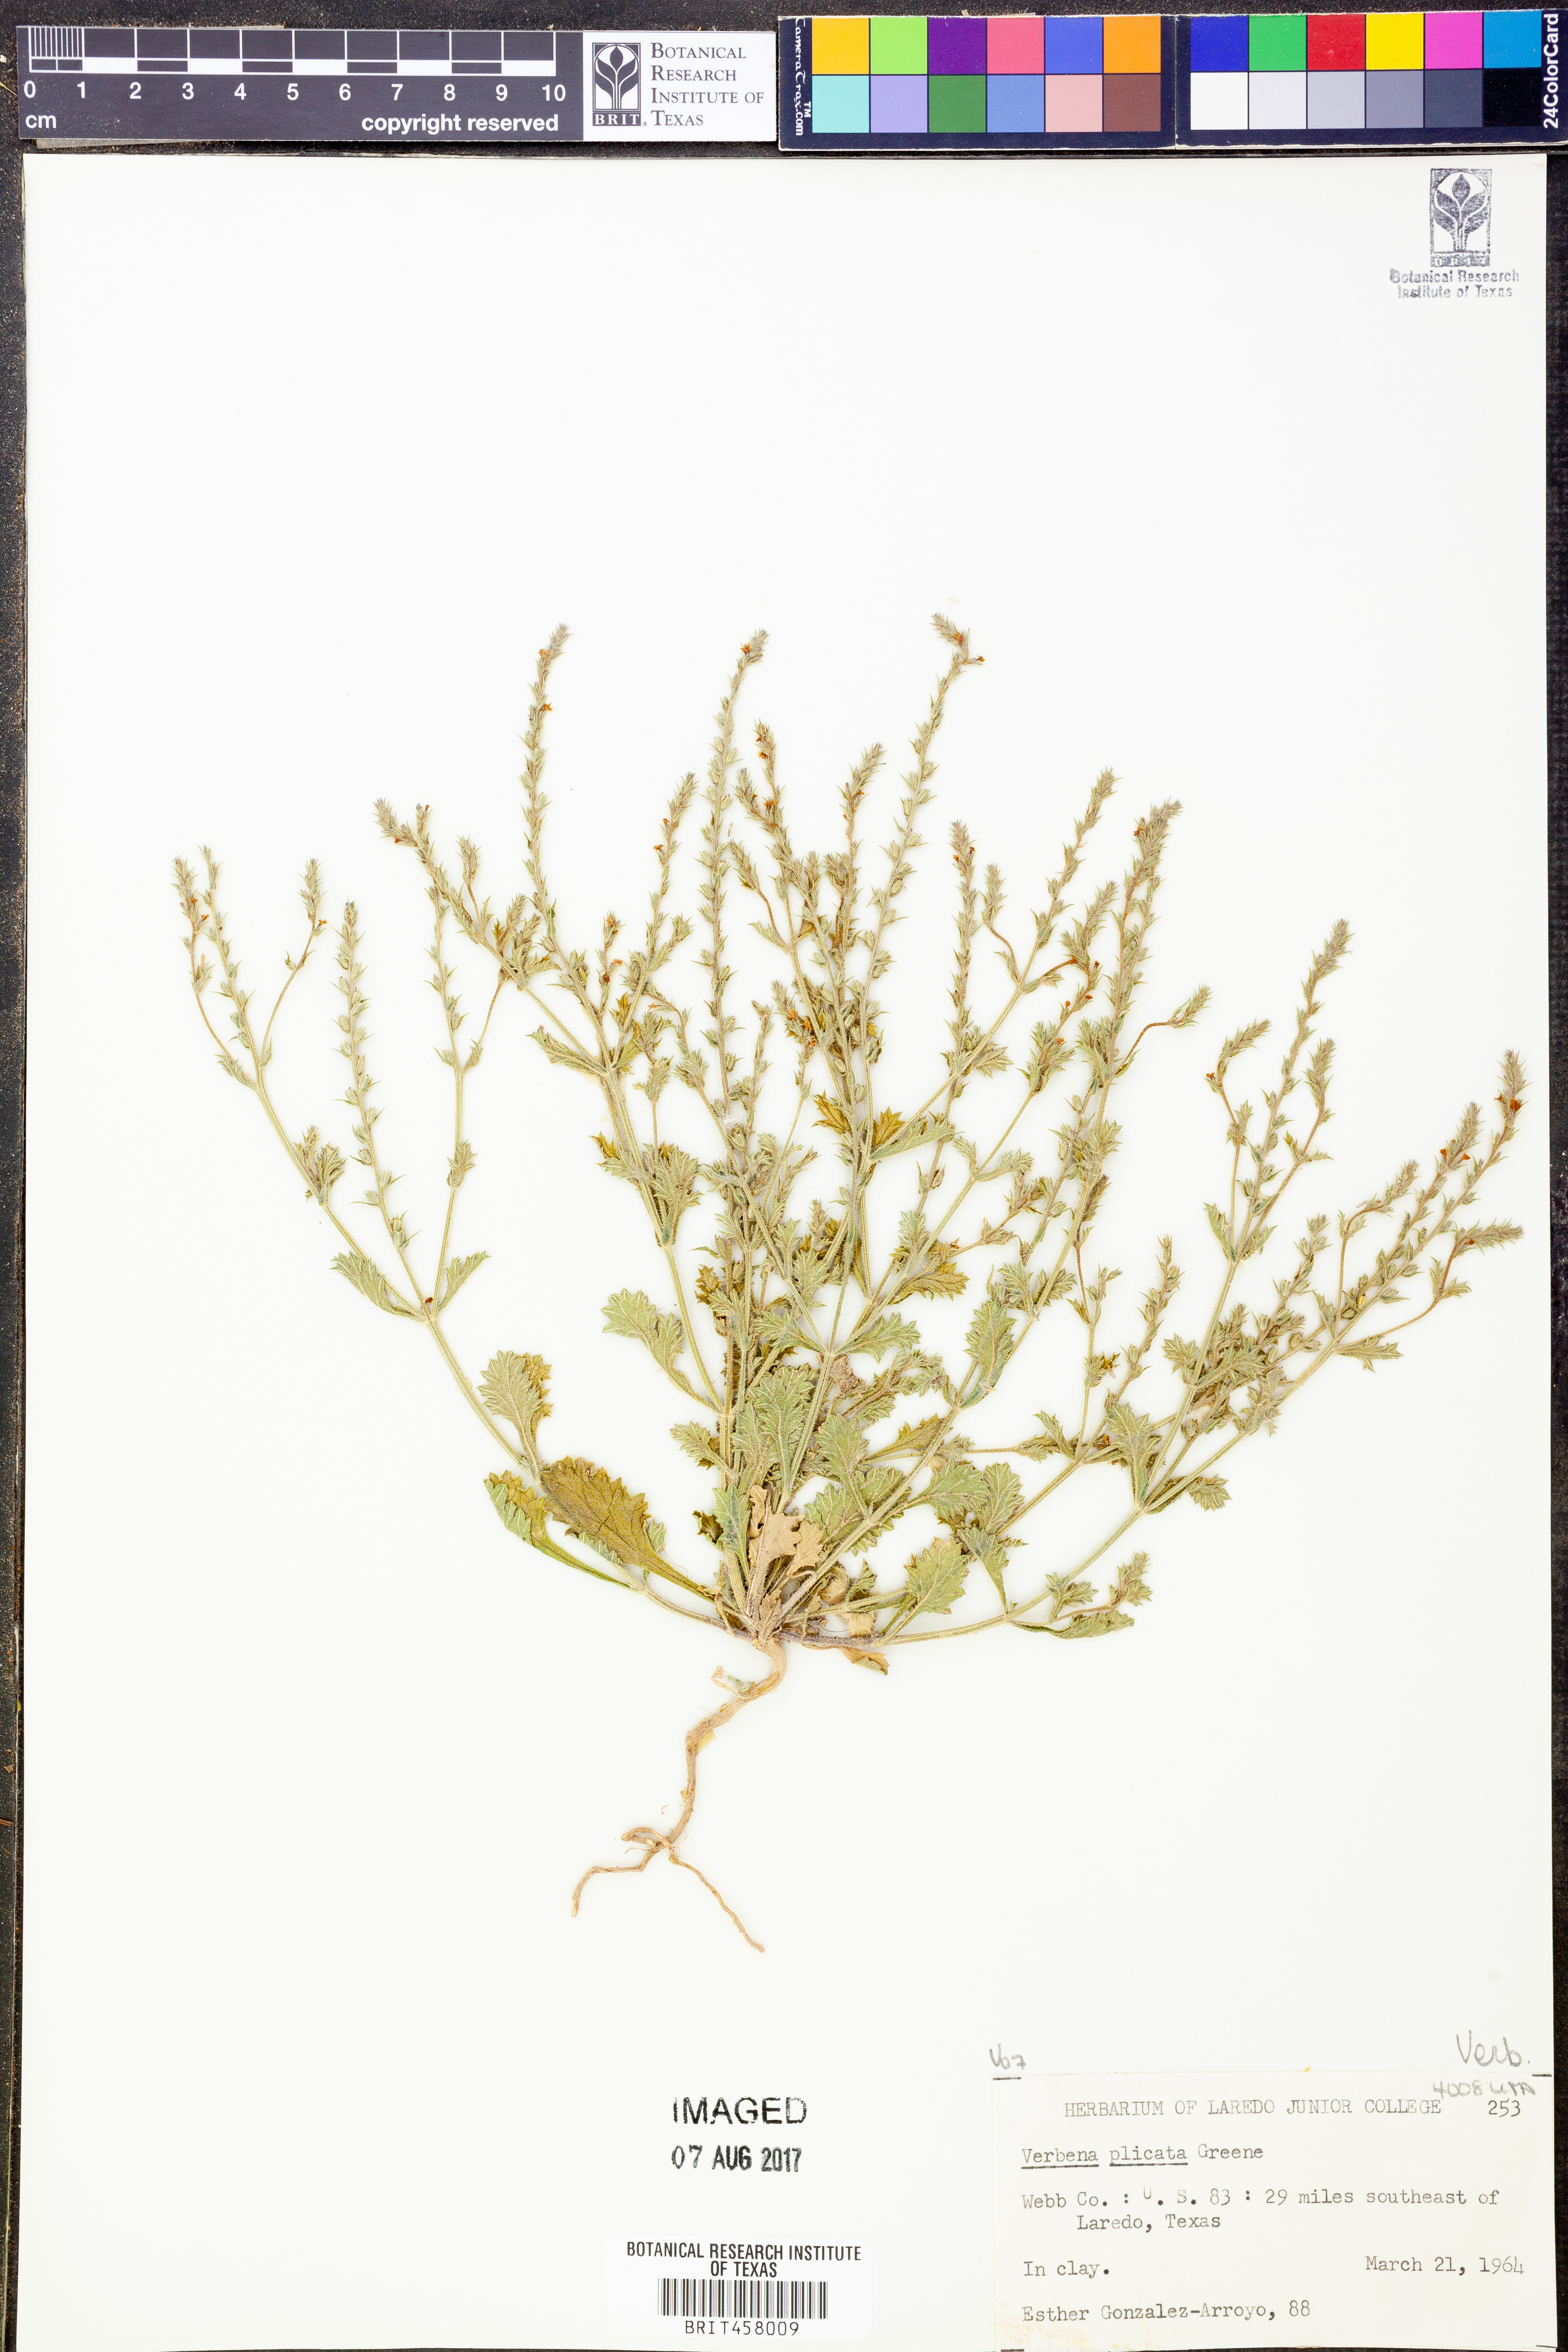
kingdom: Plantae
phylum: Tracheophyta
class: Magnoliopsida
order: Lamiales
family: Verbenaceae
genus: Verbena
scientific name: Verbena plicata
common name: Fan-leaf vervain
